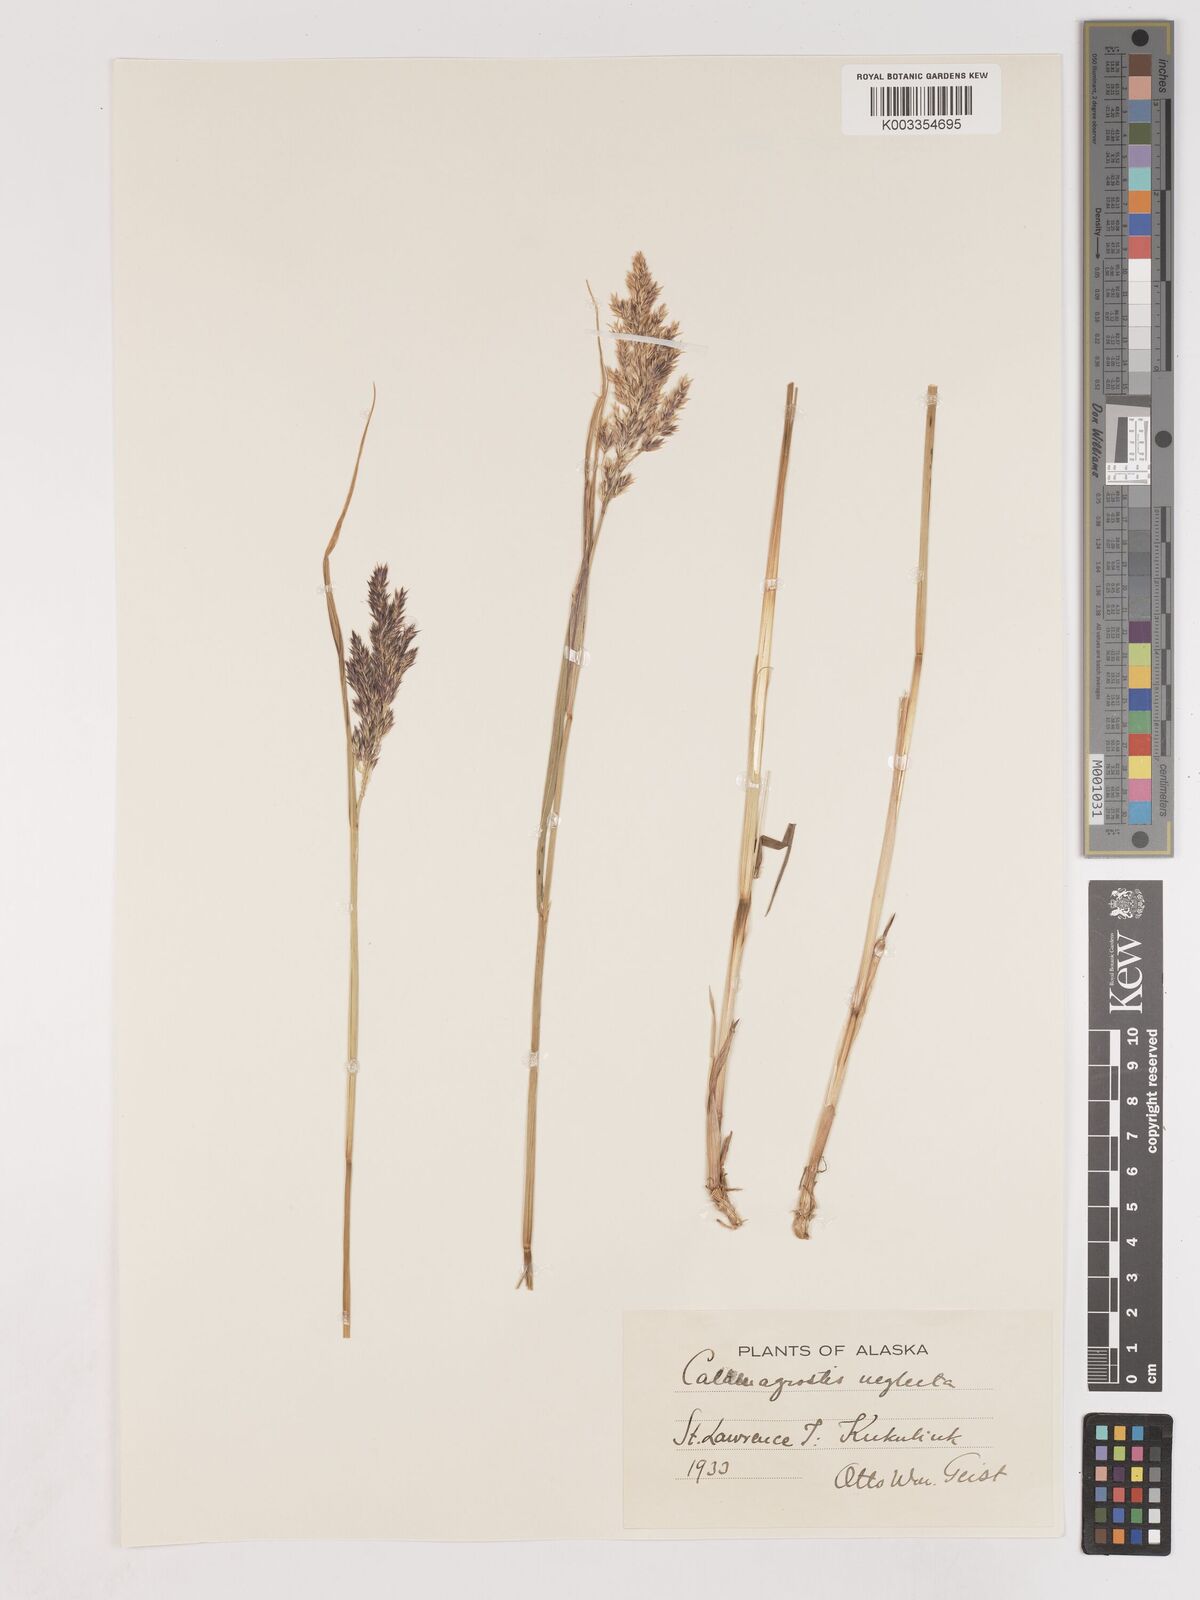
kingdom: Plantae
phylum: Tracheophyta
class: Liliopsida
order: Poales
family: Poaceae
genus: Cinnagrostis
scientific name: Cinnagrostis recta
